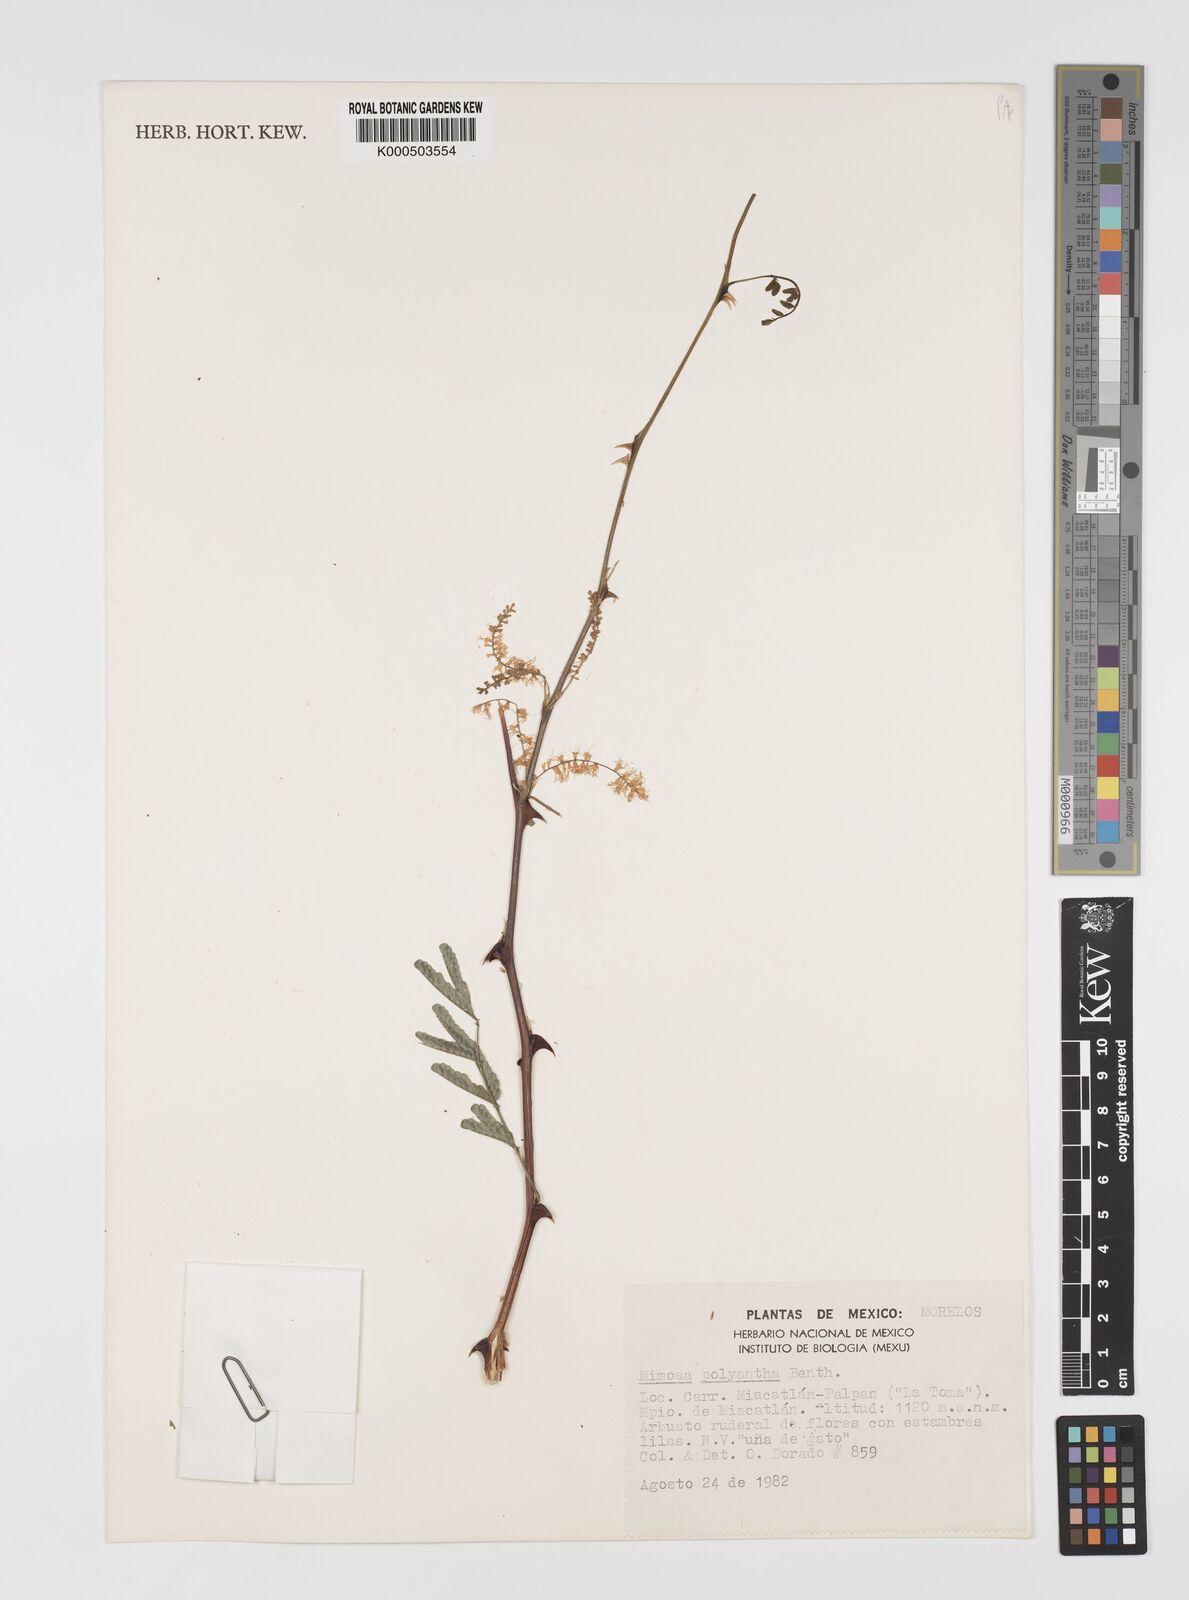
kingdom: Plantae
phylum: Tracheophyta
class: Magnoliopsida
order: Fabales
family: Fabaceae
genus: Mimosa
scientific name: Mimosa polyantha
